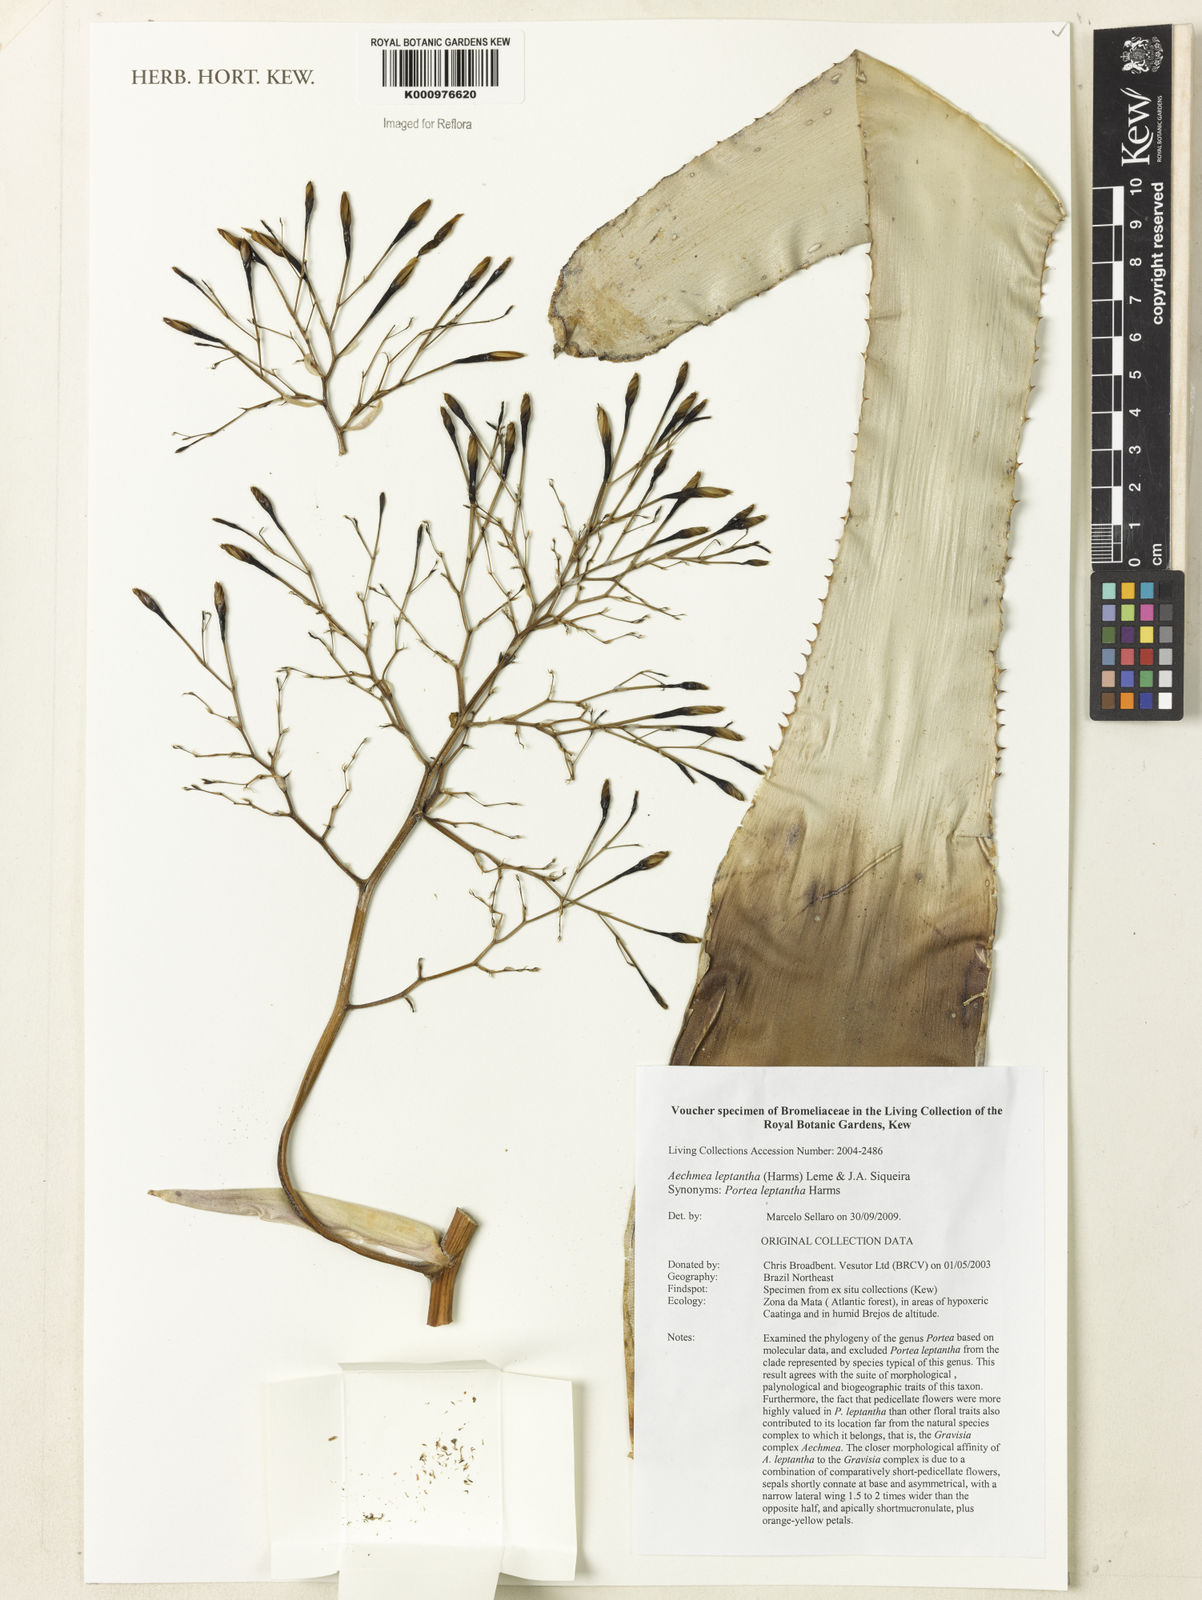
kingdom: Plantae
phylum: Tracheophyta
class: Liliopsida
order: Poales
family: Bromeliaceae
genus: Aechmea
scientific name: Aechmea leptantha
